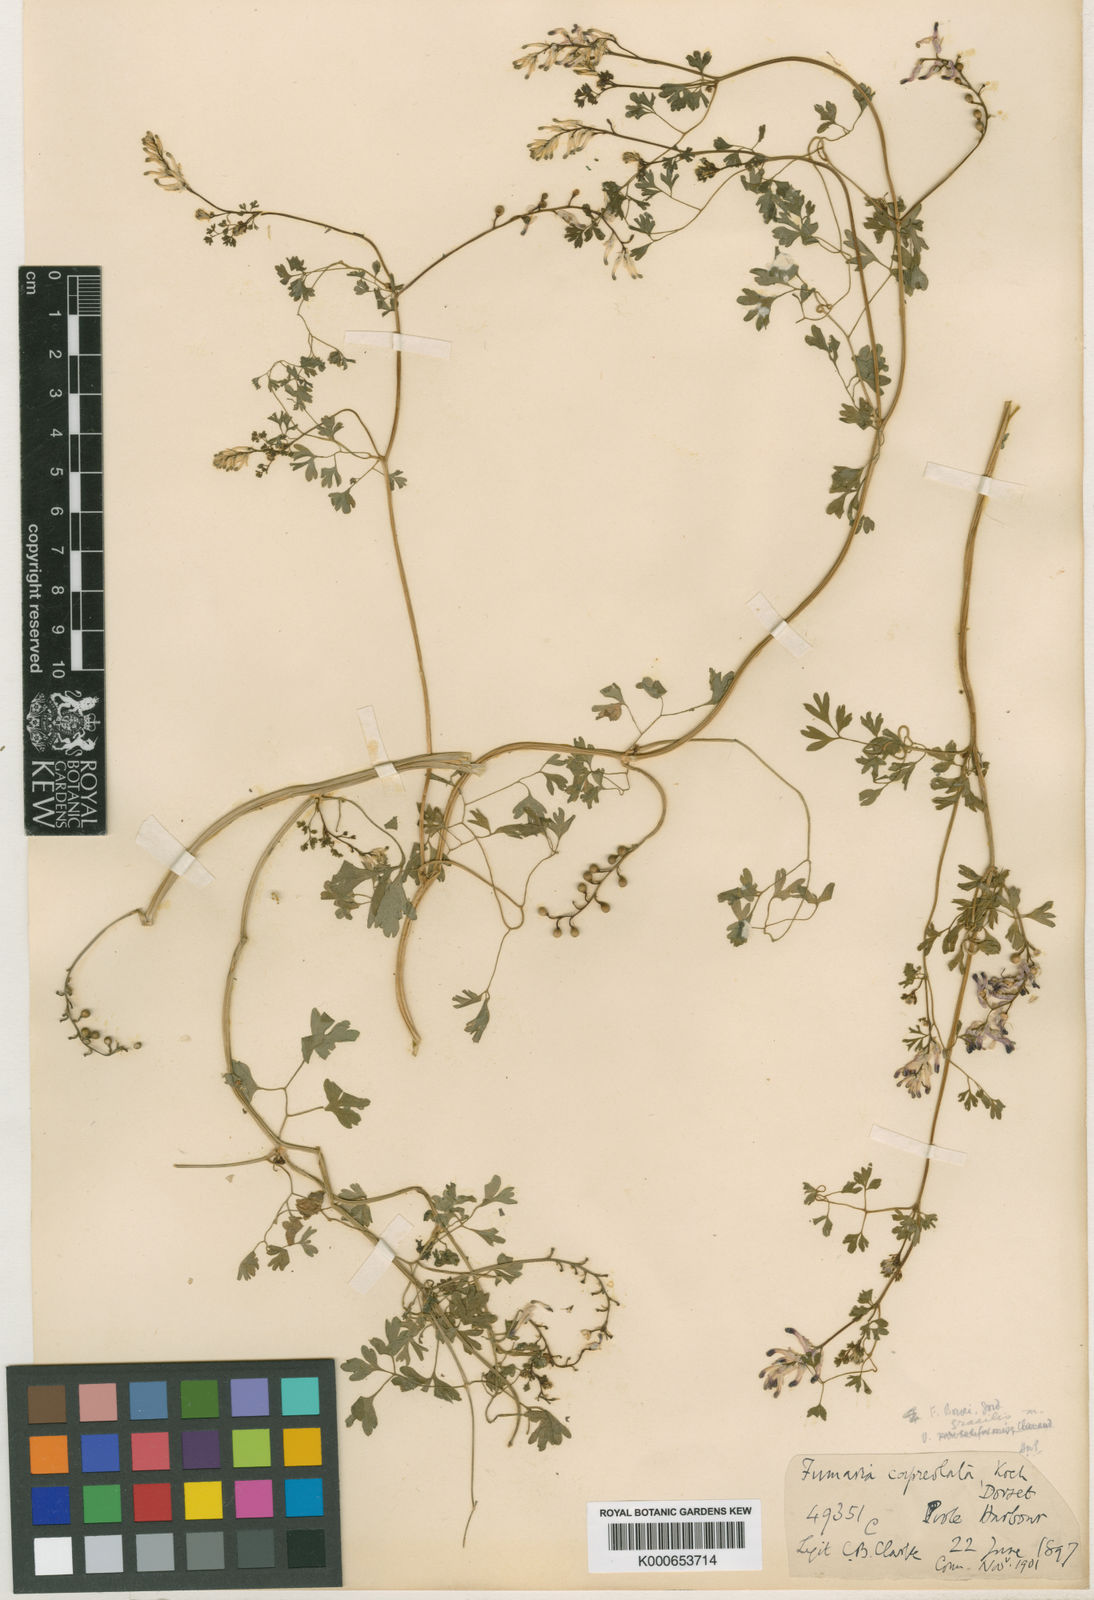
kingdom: Plantae
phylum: Tracheophyta
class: Magnoliopsida
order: Ranunculales
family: Papaveraceae
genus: Fumaria
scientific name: Fumaria muralis
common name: Common ramping-fumitory
